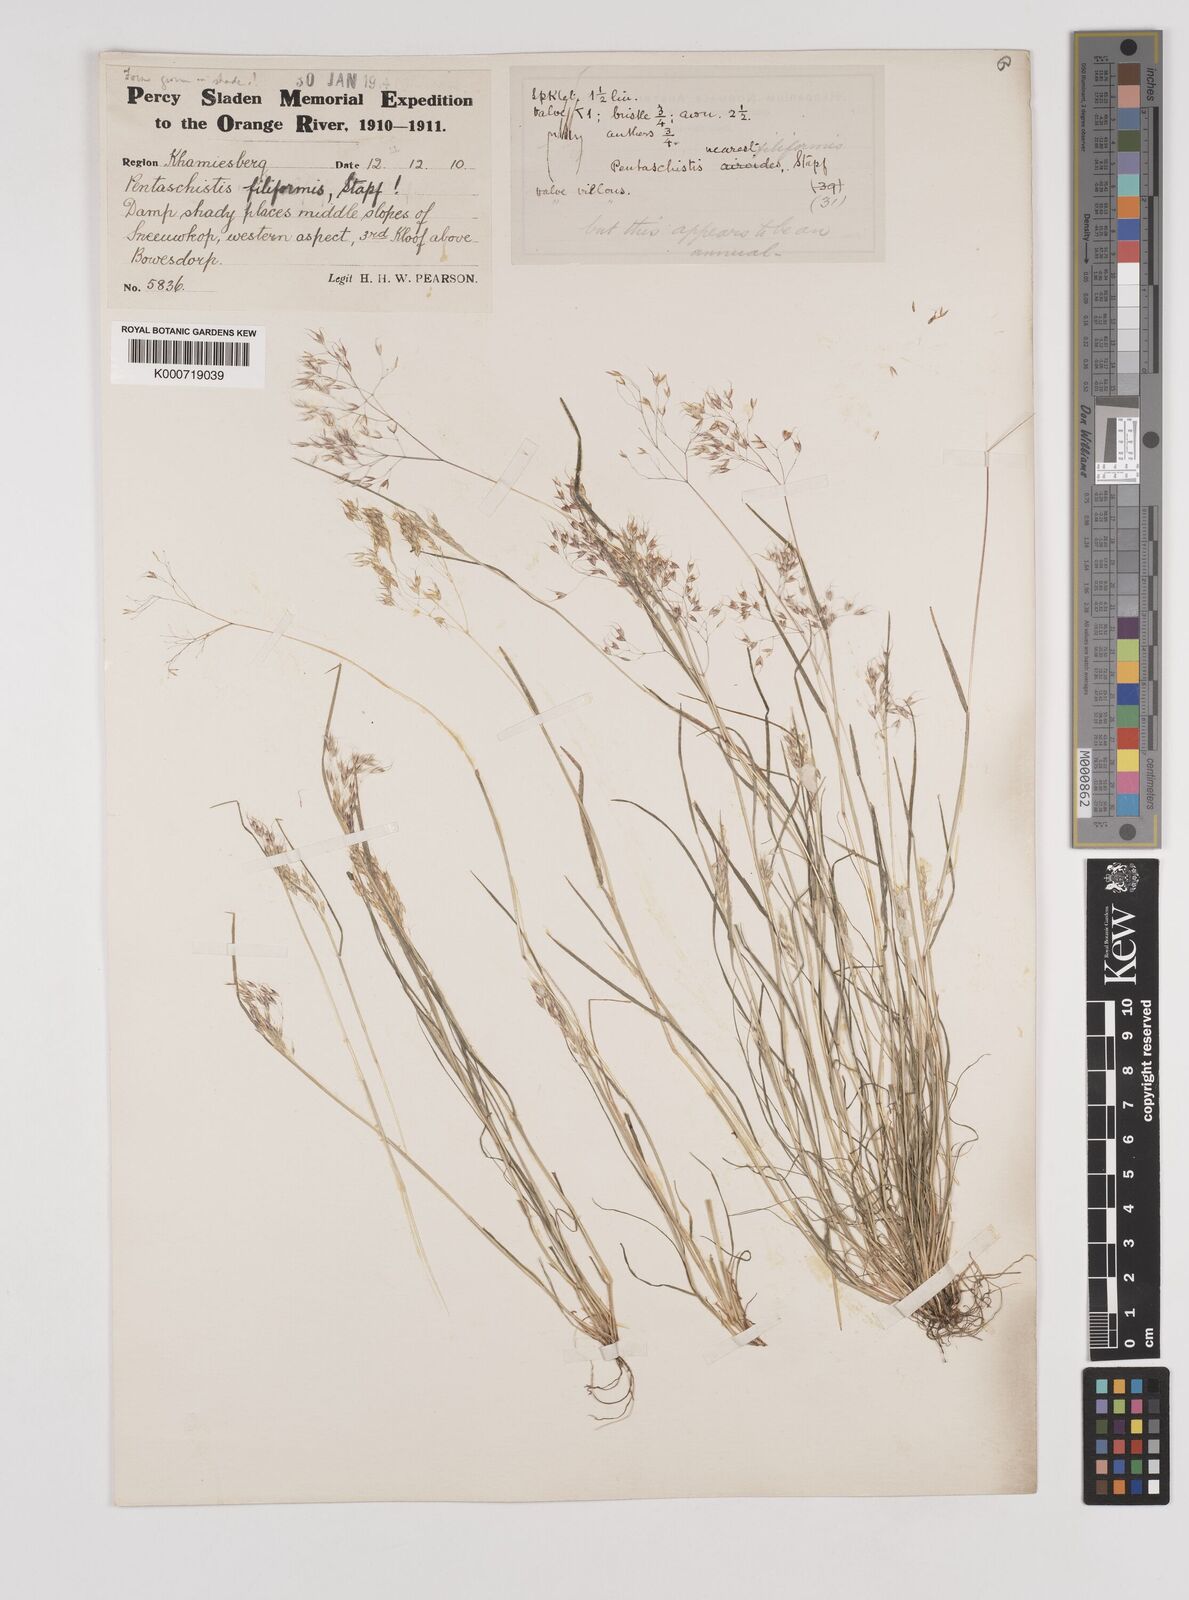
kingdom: Plantae
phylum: Tracheophyta
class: Liliopsida
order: Poales
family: Poaceae
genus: Pentameris
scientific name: Pentameris pallida
